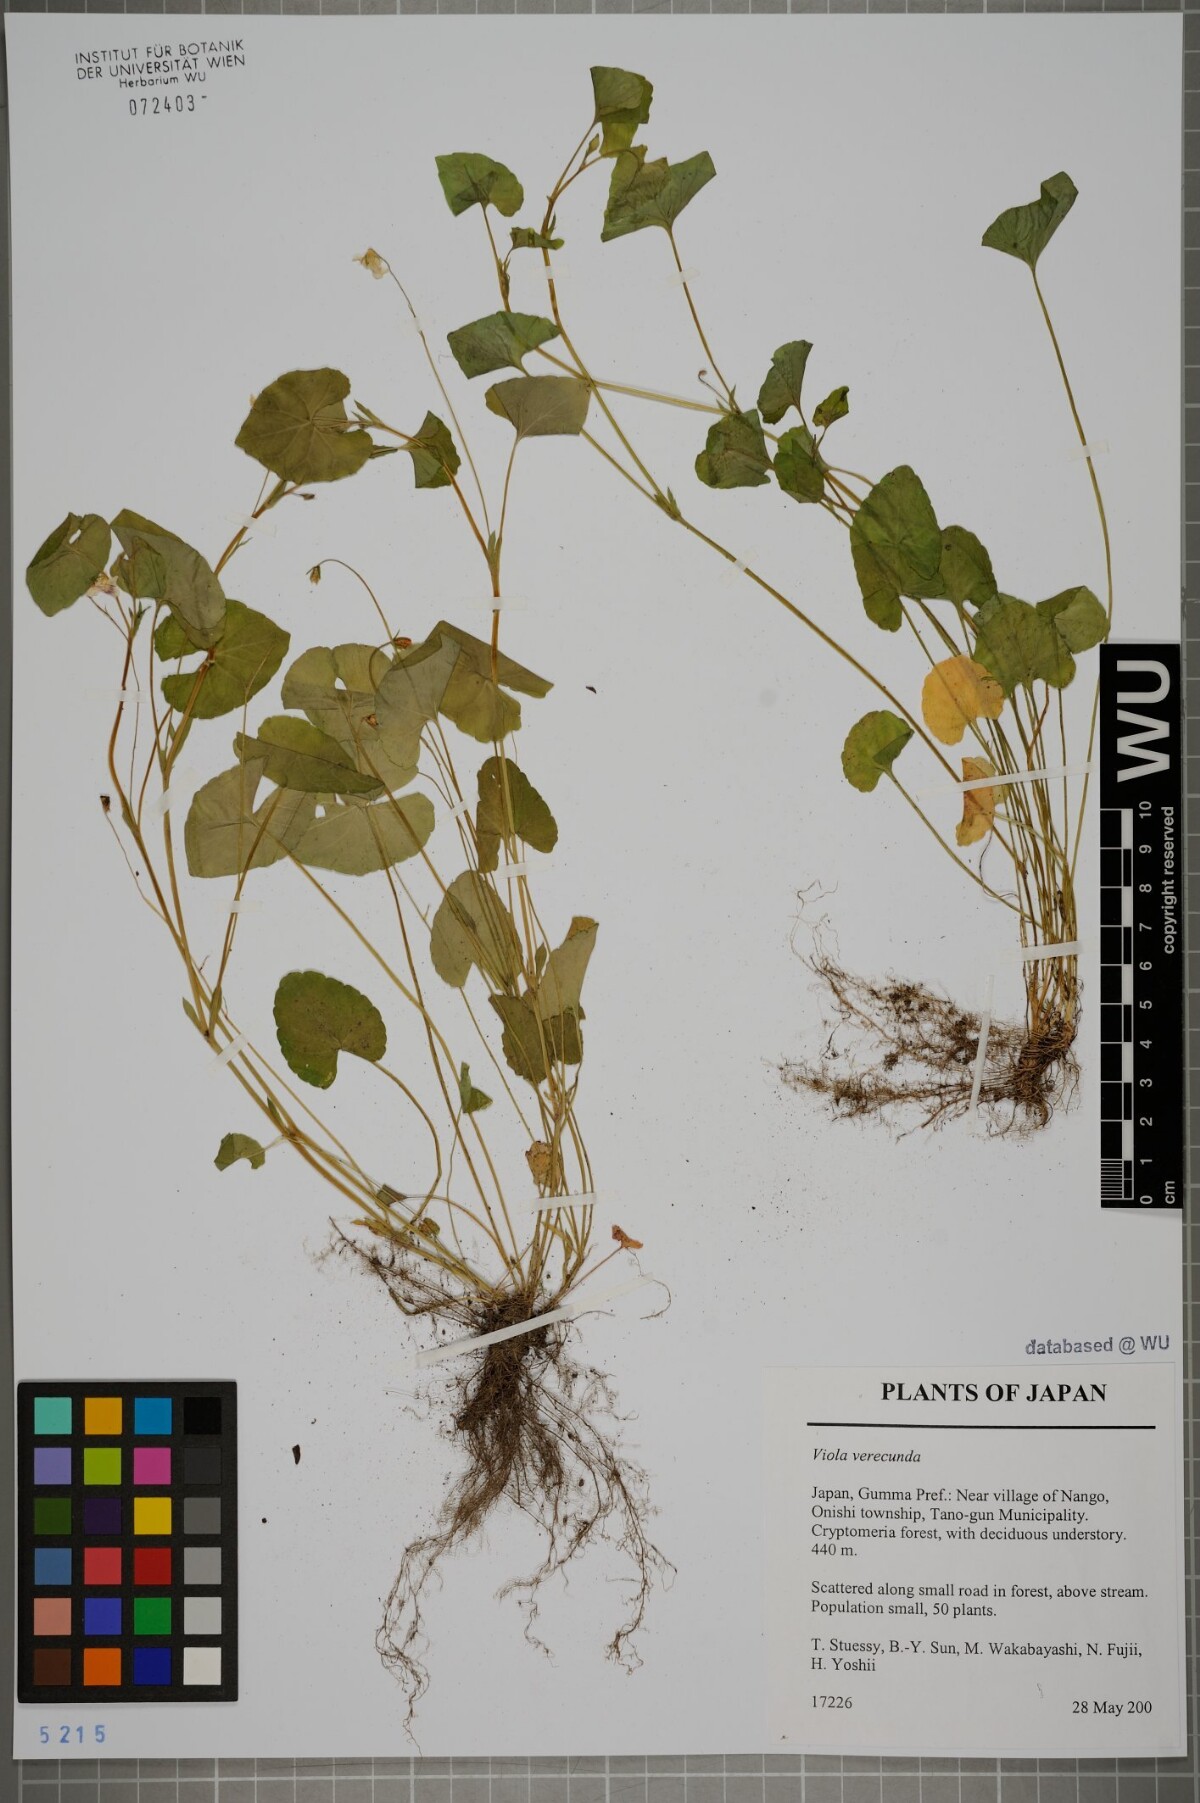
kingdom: Plantae
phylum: Tracheophyta
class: Magnoliopsida
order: Malpighiales
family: Violaceae
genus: Viola
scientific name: Viola hamiltoniana
